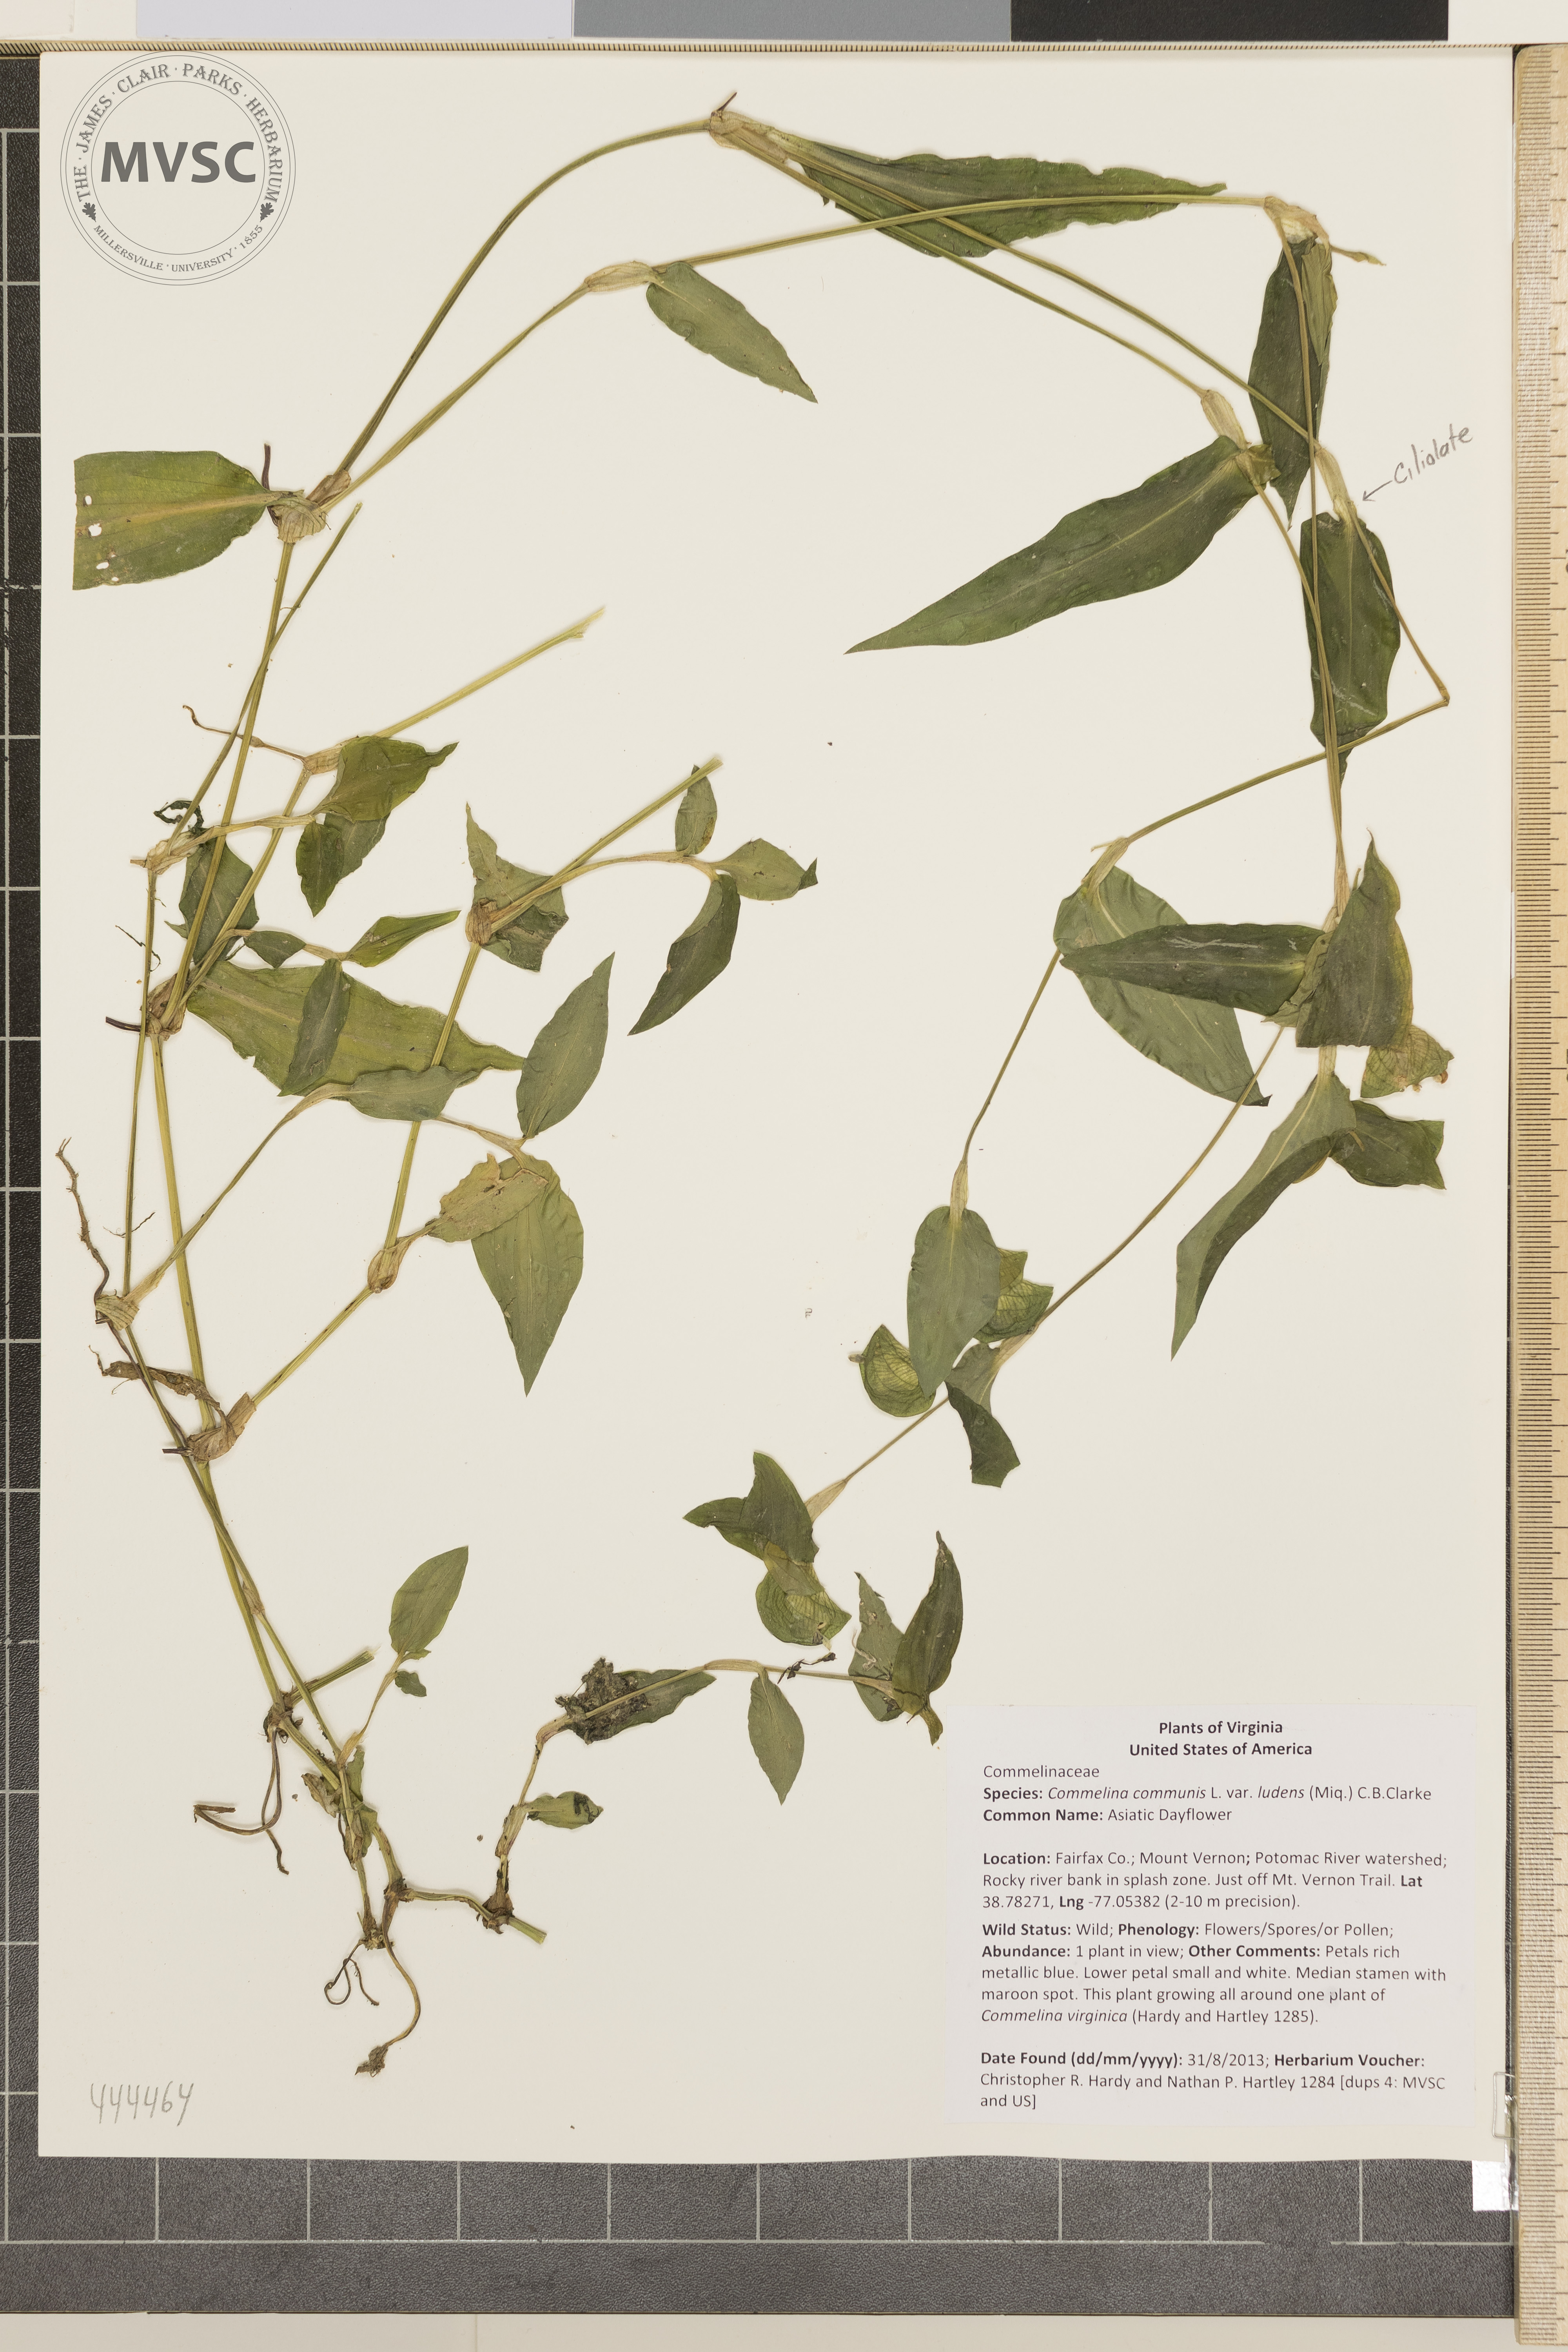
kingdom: Plantae
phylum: Tracheophyta
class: Liliopsida
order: Commelinales
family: Commelinaceae
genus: Commelina
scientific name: Commelina communis
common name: Asiatic Dayflower
